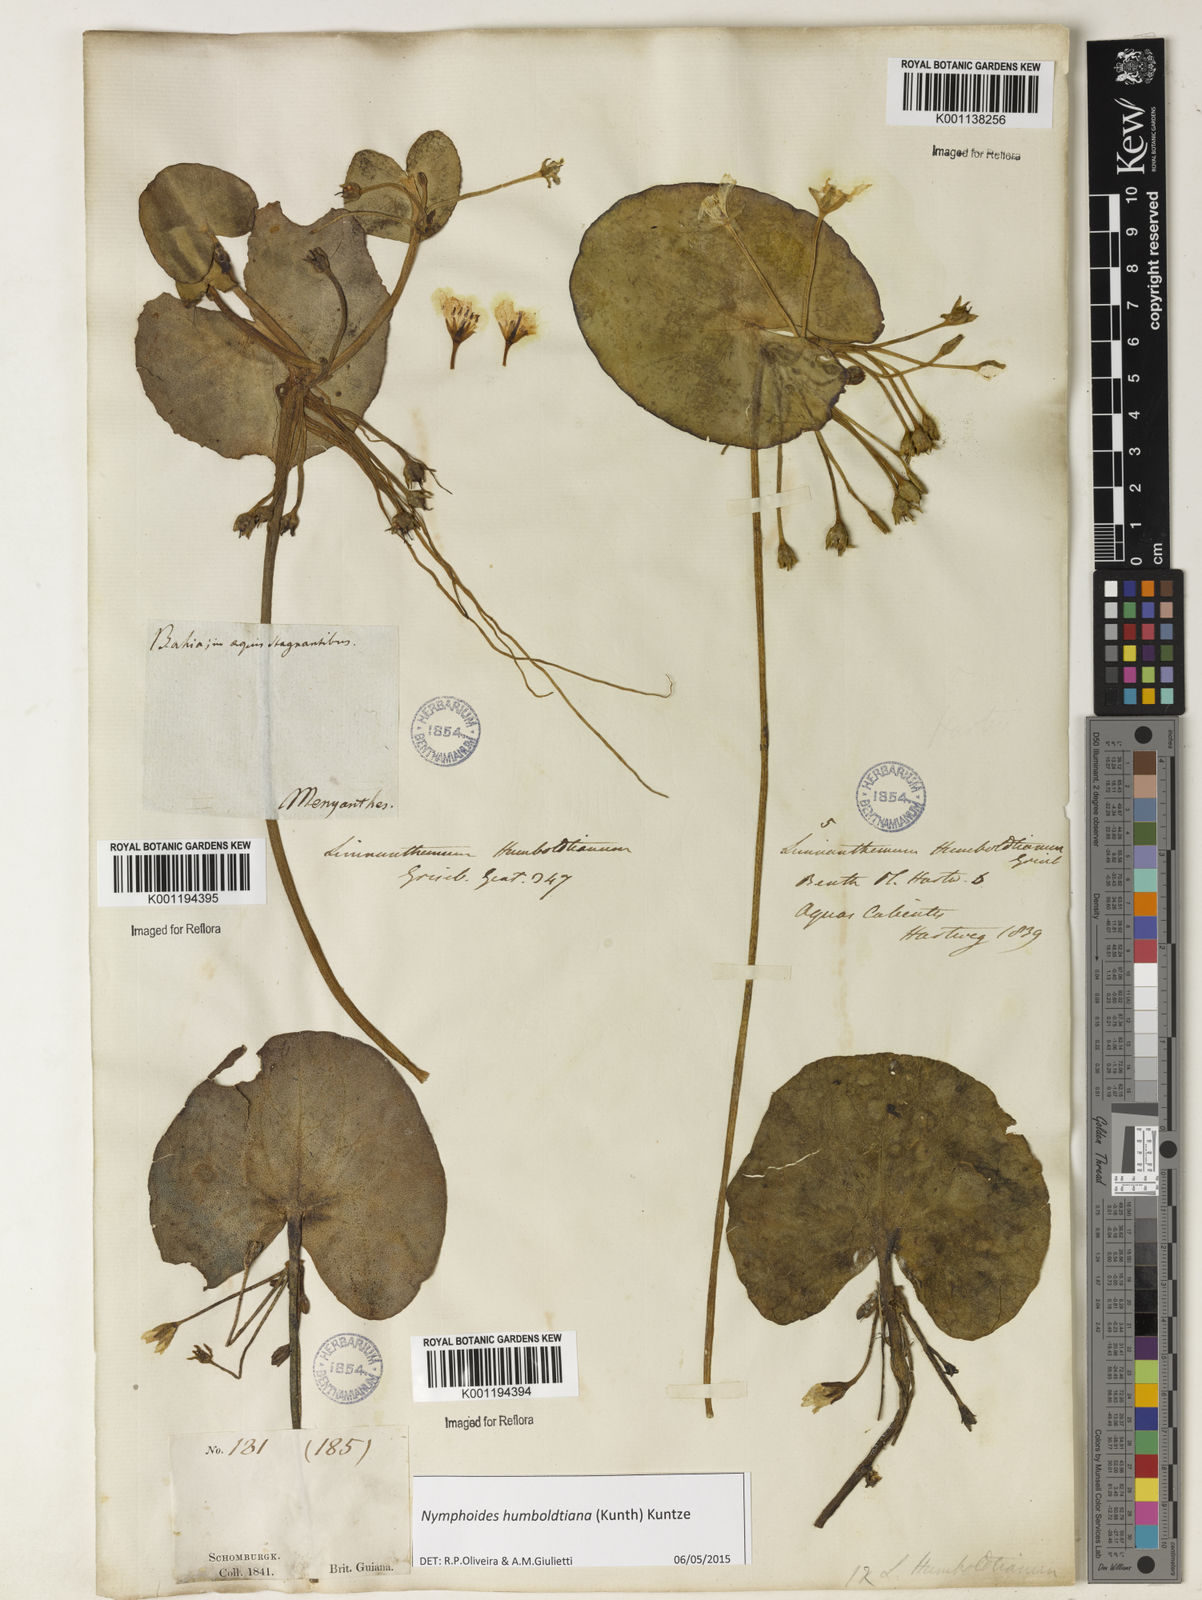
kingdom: Plantae
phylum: Tracheophyta
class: Magnoliopsida
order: Asterales
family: Menyanthaceae
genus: Nymphoides
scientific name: Nymphoides humboldtiana
